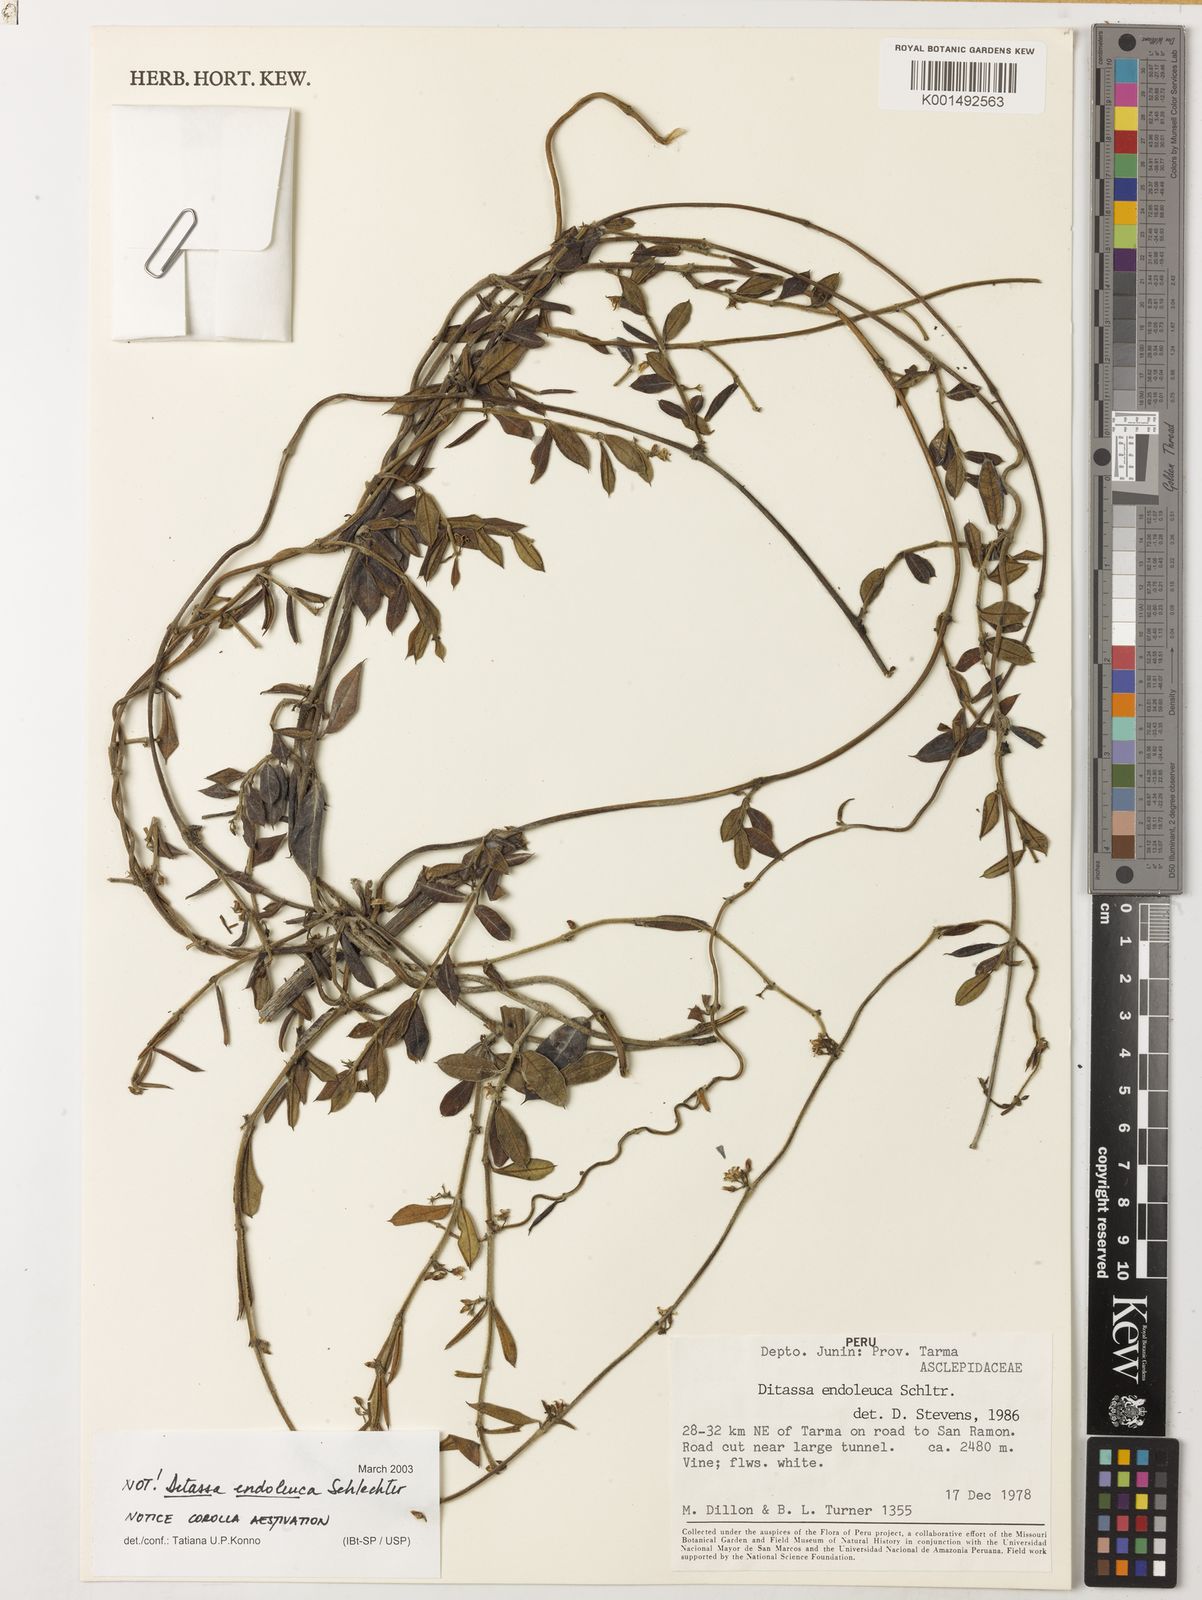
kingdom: Plantae
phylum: Tracheophyta
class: Magnoliopsida
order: Gentianales
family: Apocynaceae
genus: Ditassa
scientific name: Ditassa endoleuca
